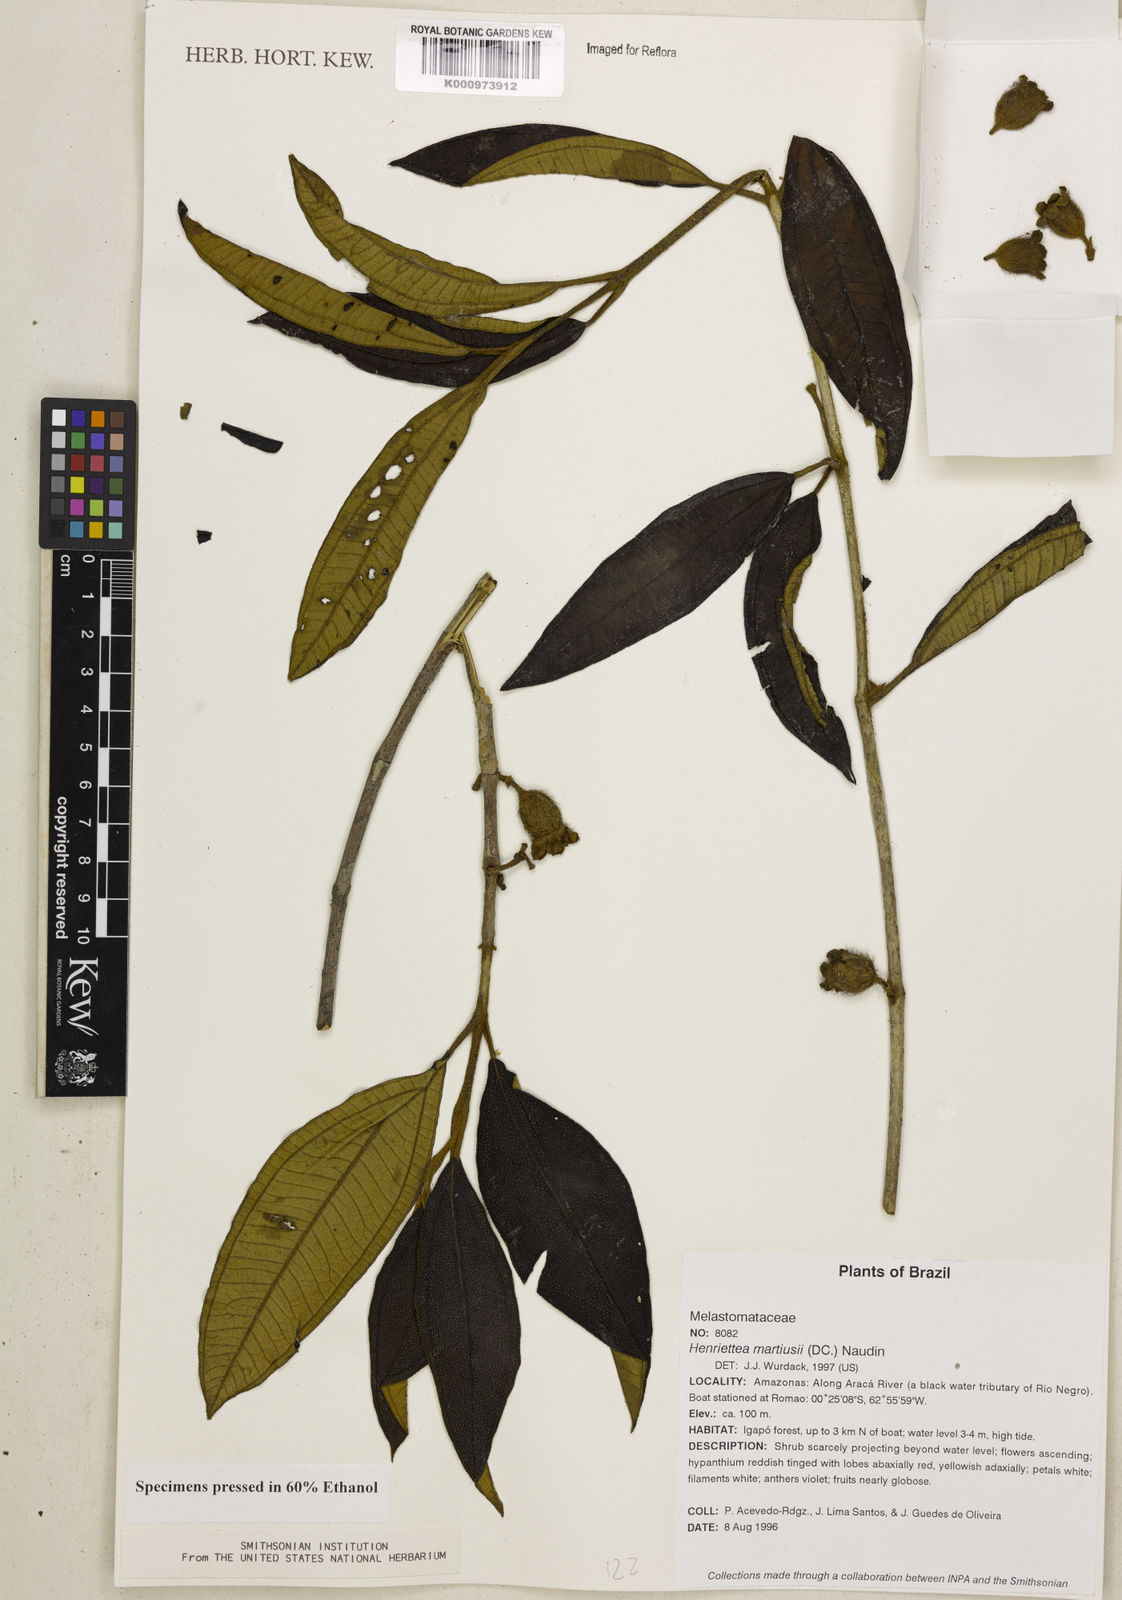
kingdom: Plantae
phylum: Tracheophyta
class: Magnoliopsida
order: Myrtales
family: Melastomataceae
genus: Henriettea
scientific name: Henriettea martiusii
